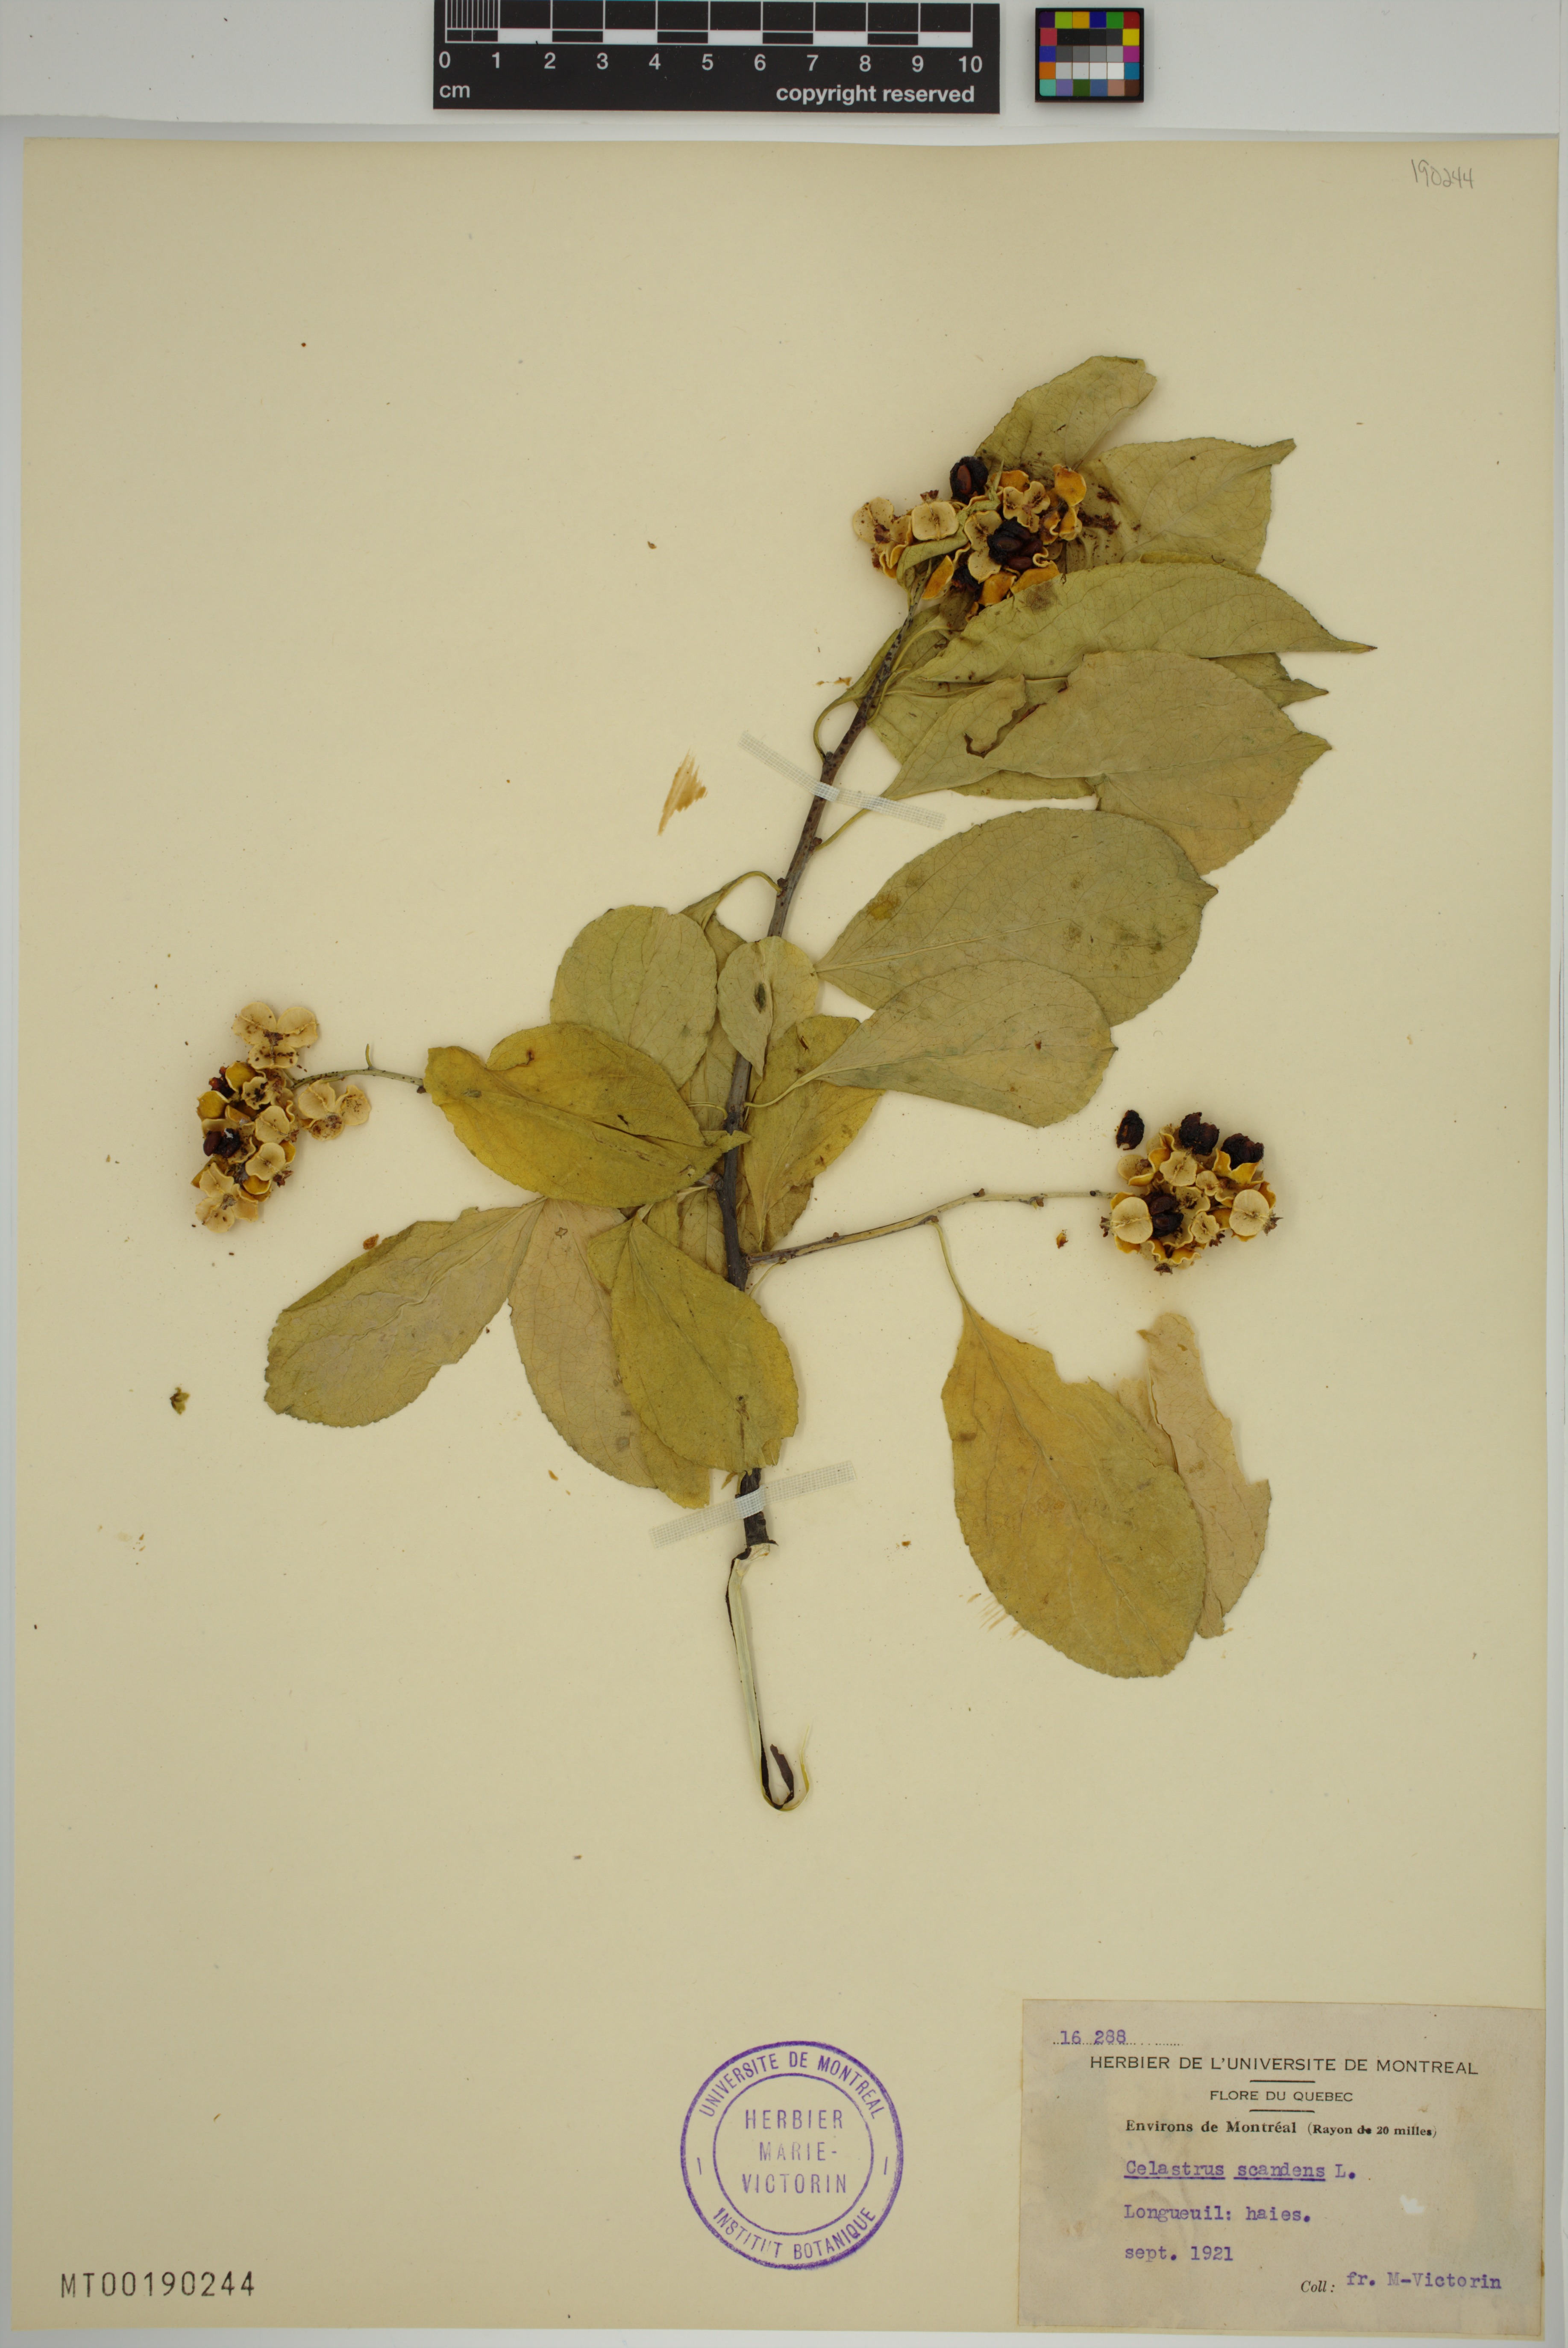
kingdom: Plantae
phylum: Tracheophyta
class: Magnoliopsida
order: Celastrales
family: Celastraceae
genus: Celastrus
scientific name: Celastrus scandens
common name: American bittersweet
